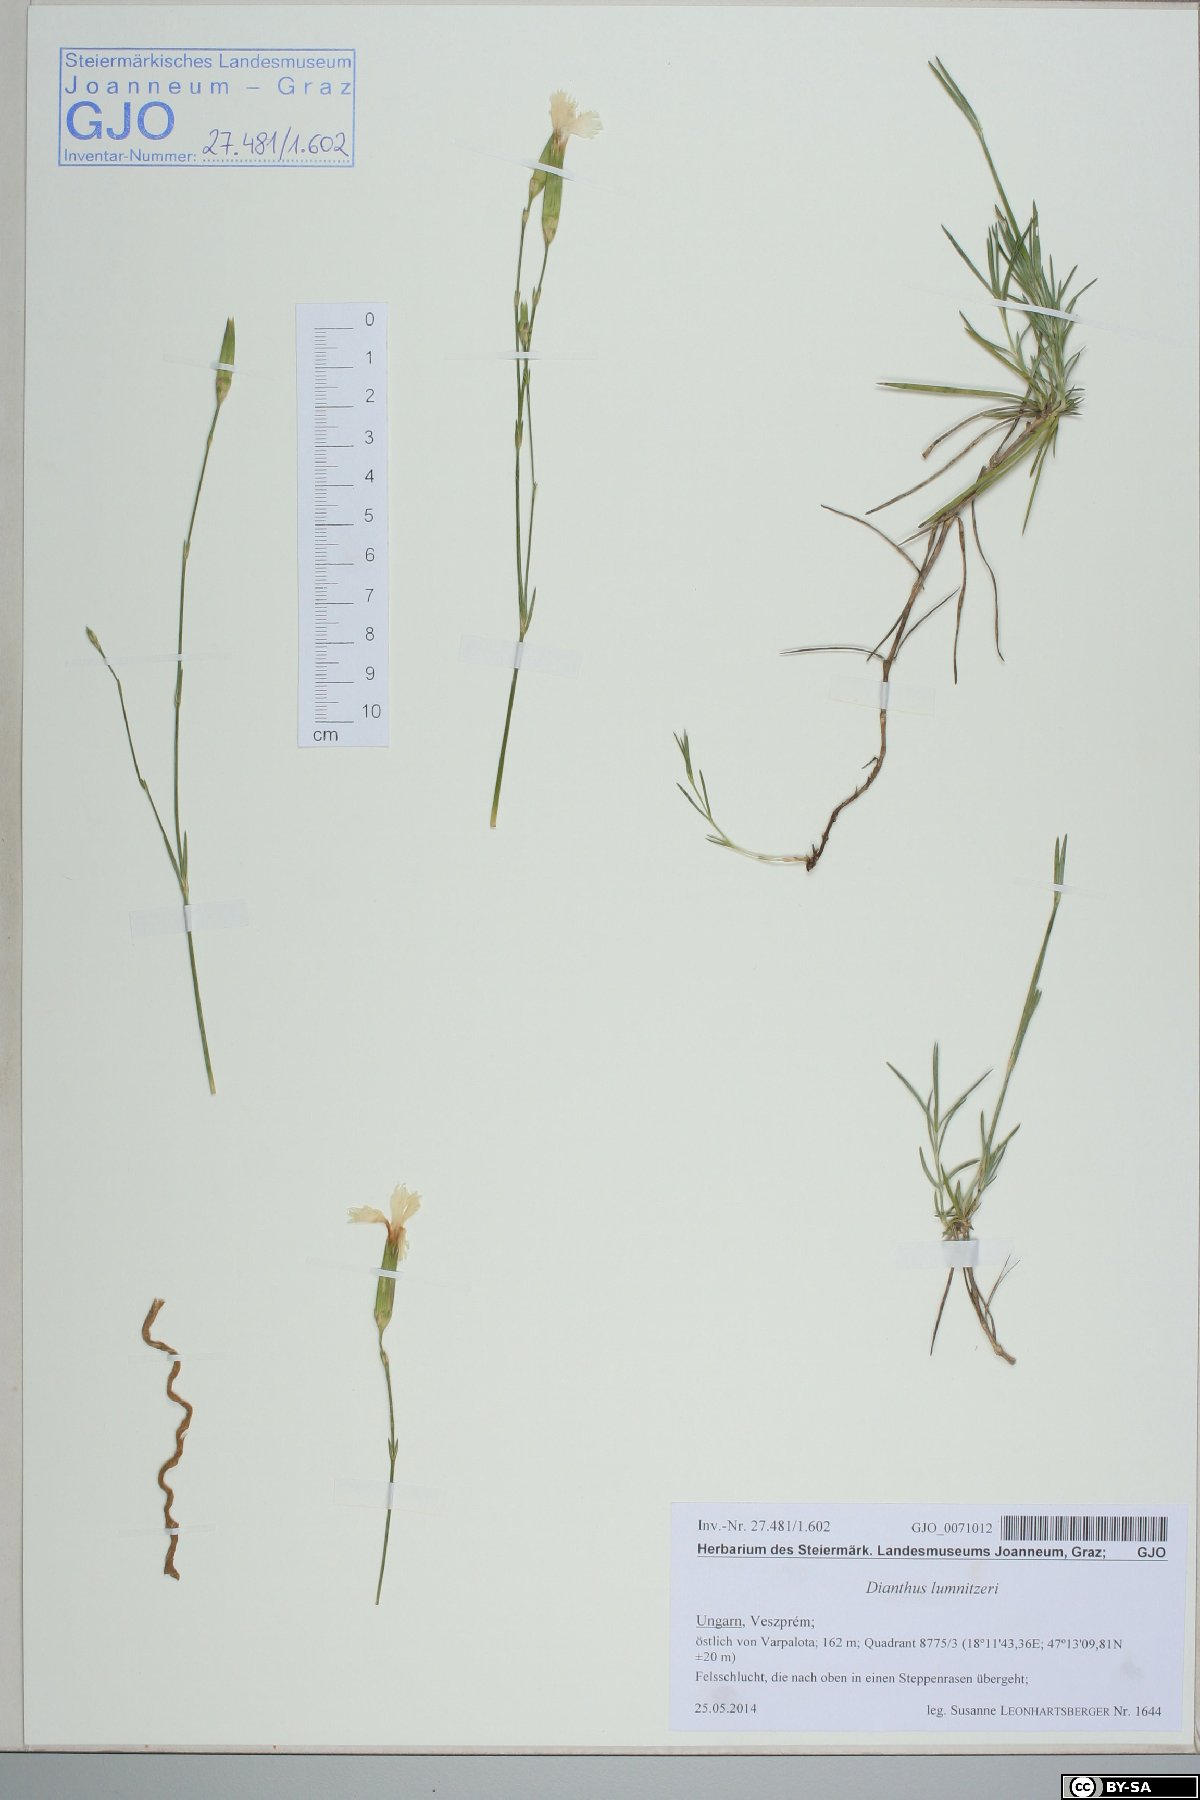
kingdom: Plantae
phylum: Tracheophyta
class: Magnoliopsida
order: Caryophyllales
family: Caryophyllaceae
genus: Dianthus
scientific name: Dianthus praecox
